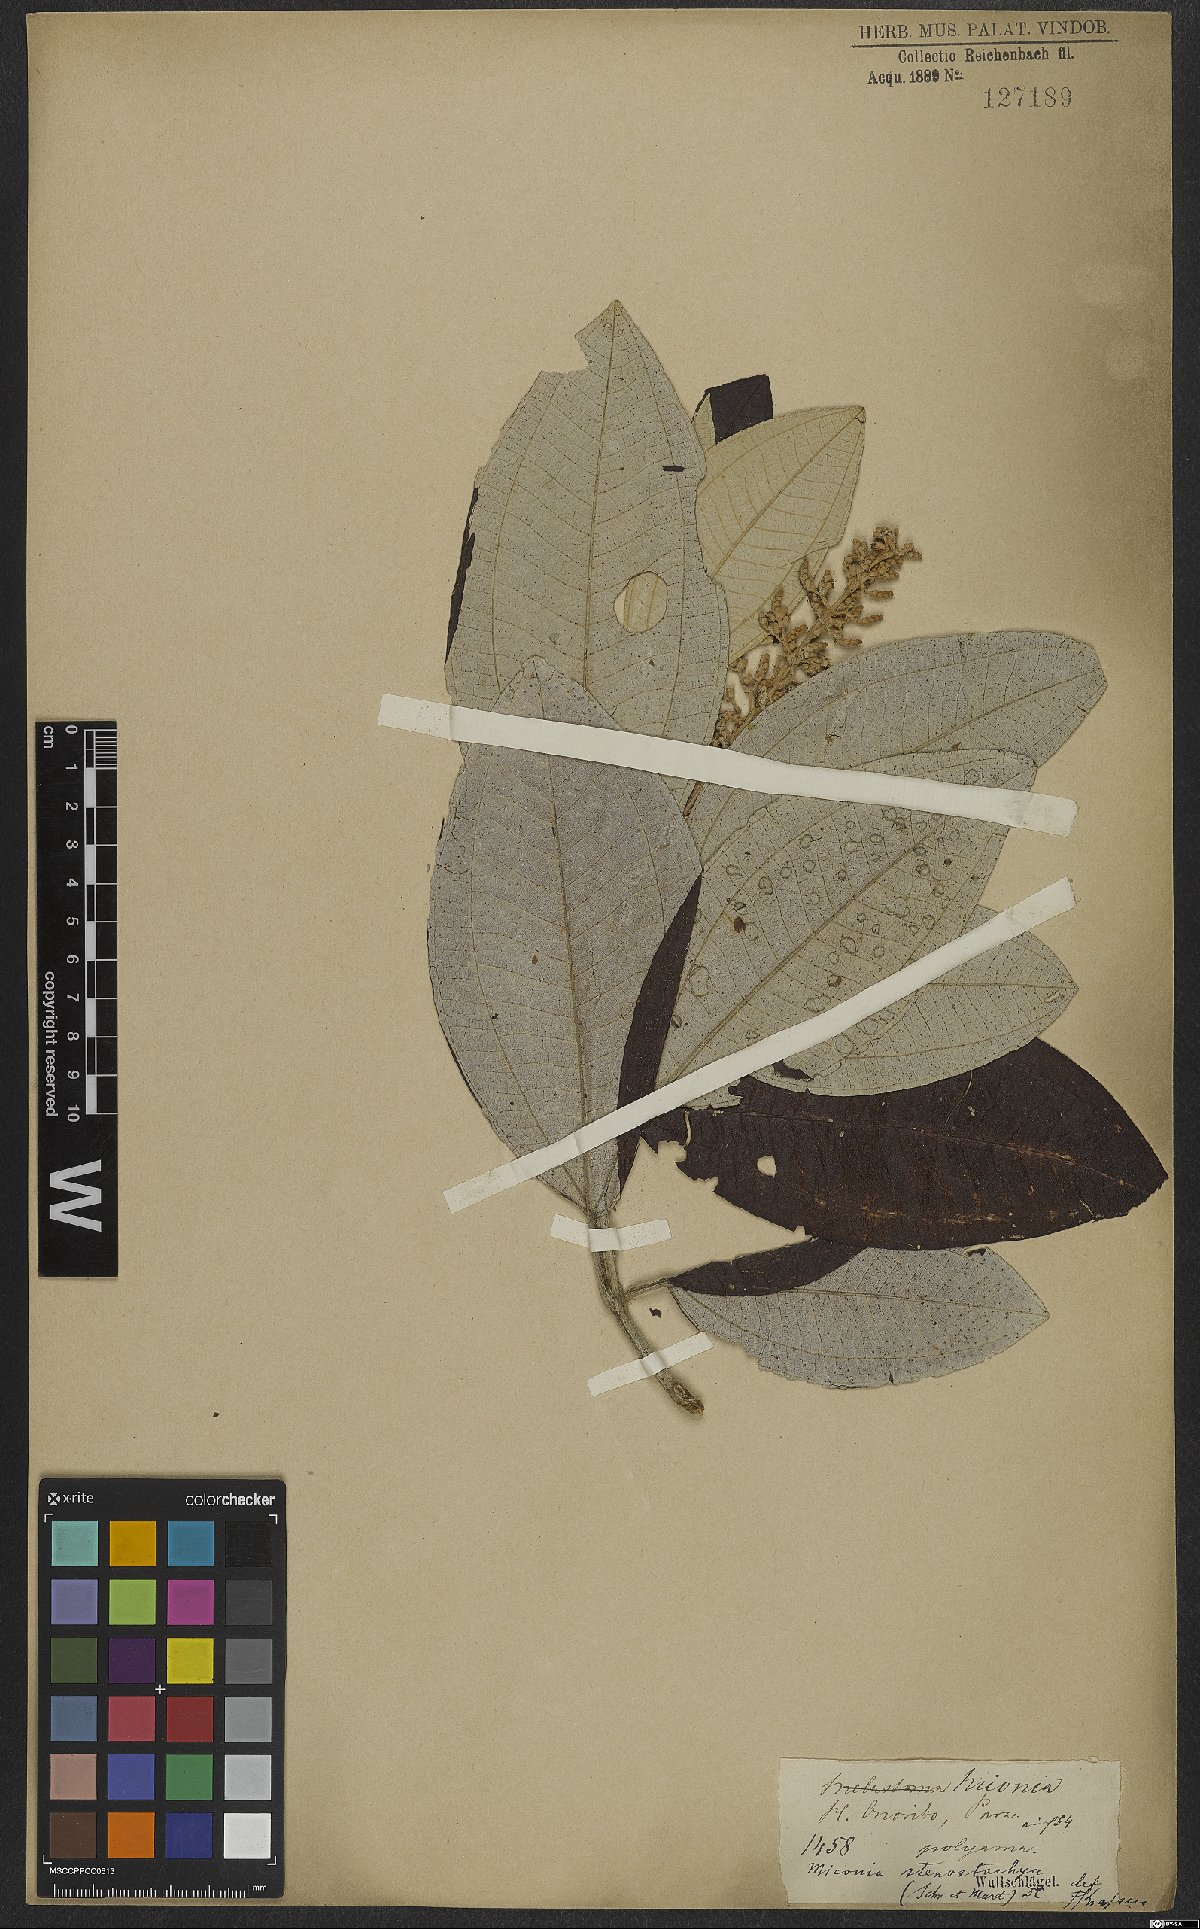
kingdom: Plantae
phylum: Tracheophyta
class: Magnoliopsida
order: Myrtales
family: Melastomataceae
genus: Miconia
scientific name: Miconia stenostachya
